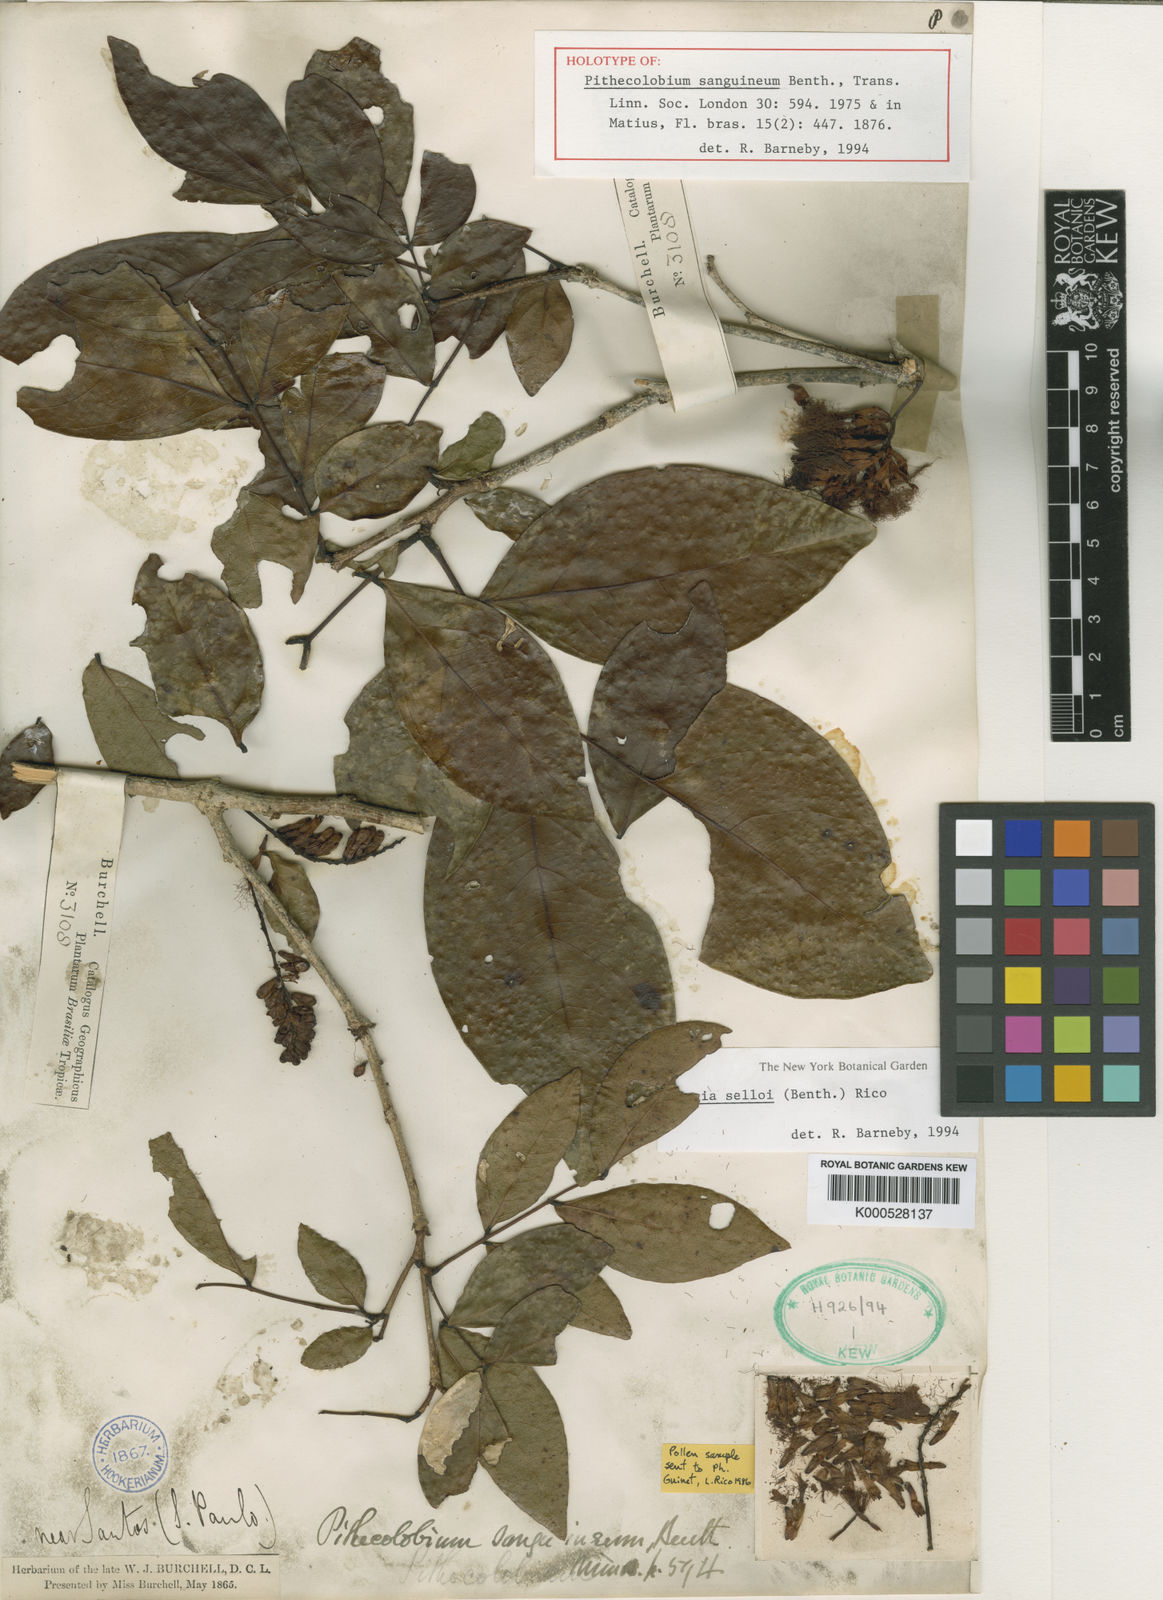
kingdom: Plantae
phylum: Tracheophyta
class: Magnoliopsida
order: Fabales
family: Fabaceae
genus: Zygia
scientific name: Zygia selloi
